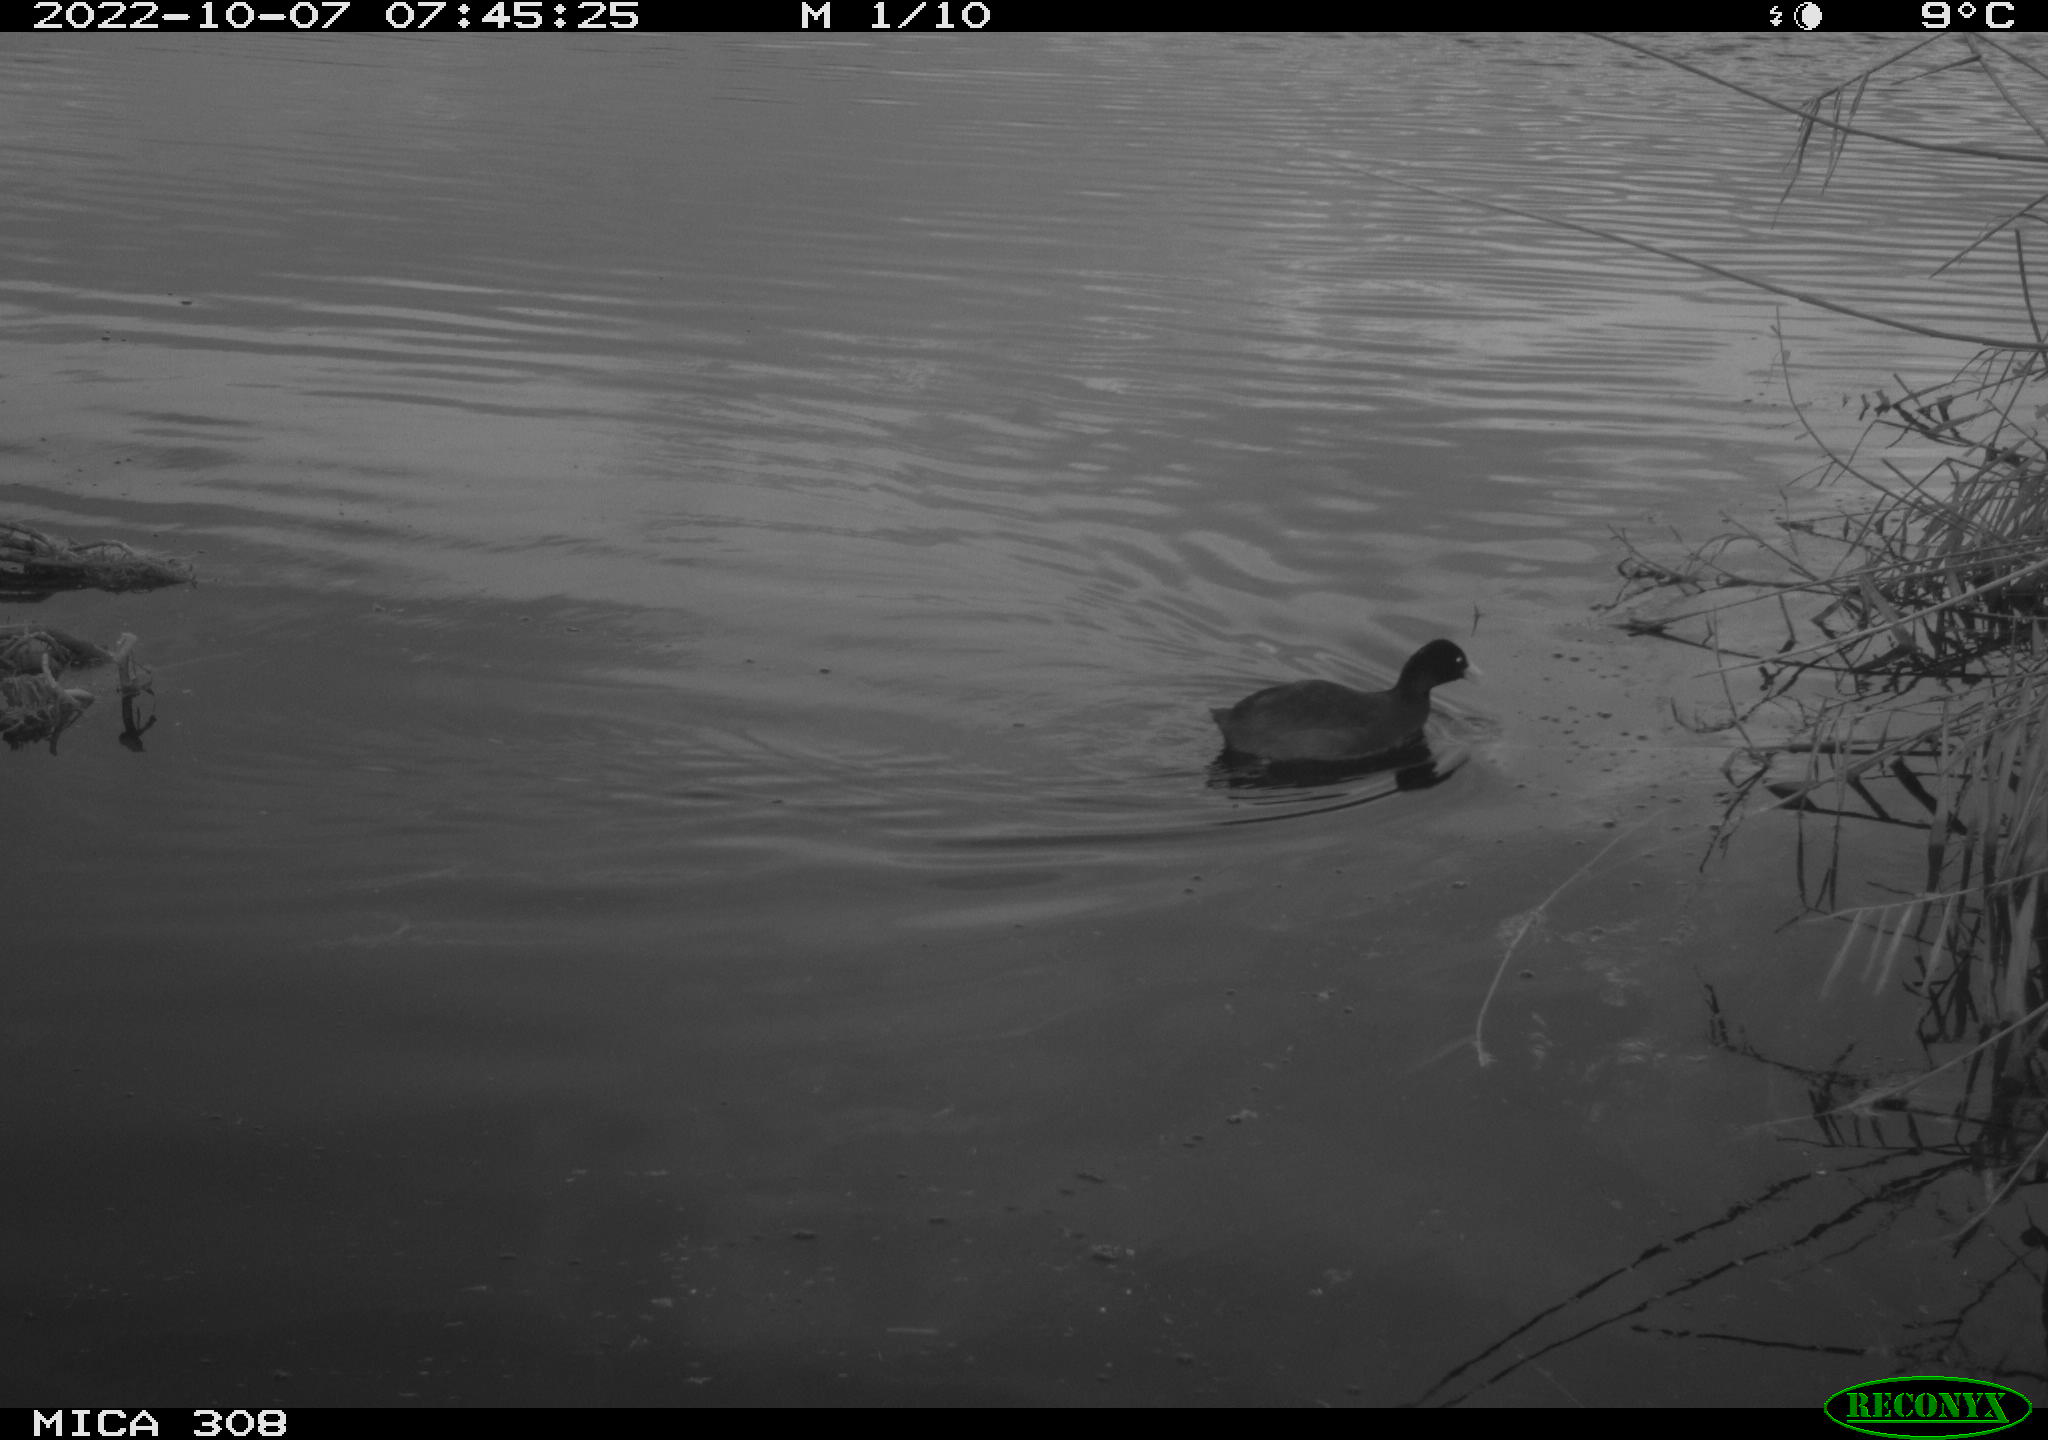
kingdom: Animalia
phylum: Chordata
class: Aves
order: Gruiformes
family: Rallidae
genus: Gallinula
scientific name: Gallinula chloropus
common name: Common moorhen
